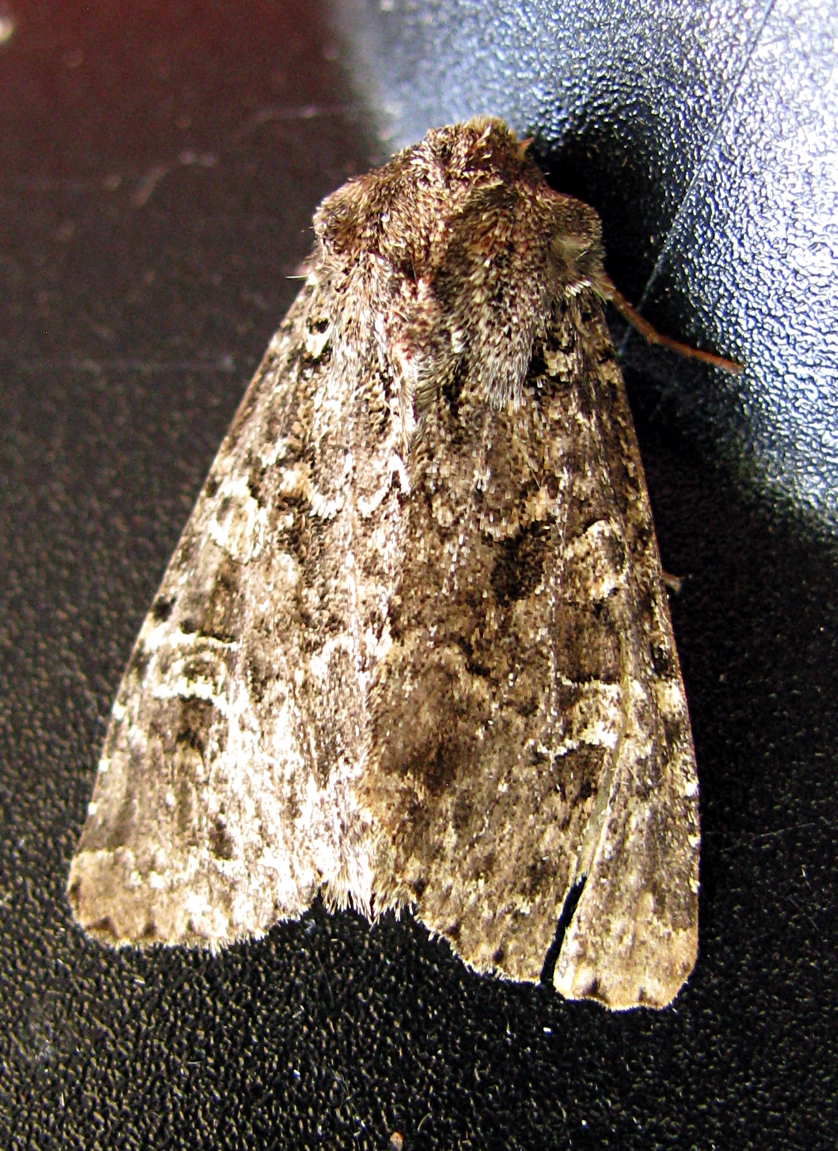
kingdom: Animalia
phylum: Arthropoda
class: Insecta
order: Lepidoptera
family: Noctuidae
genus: Apamea
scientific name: Apamea furva
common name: Confused
